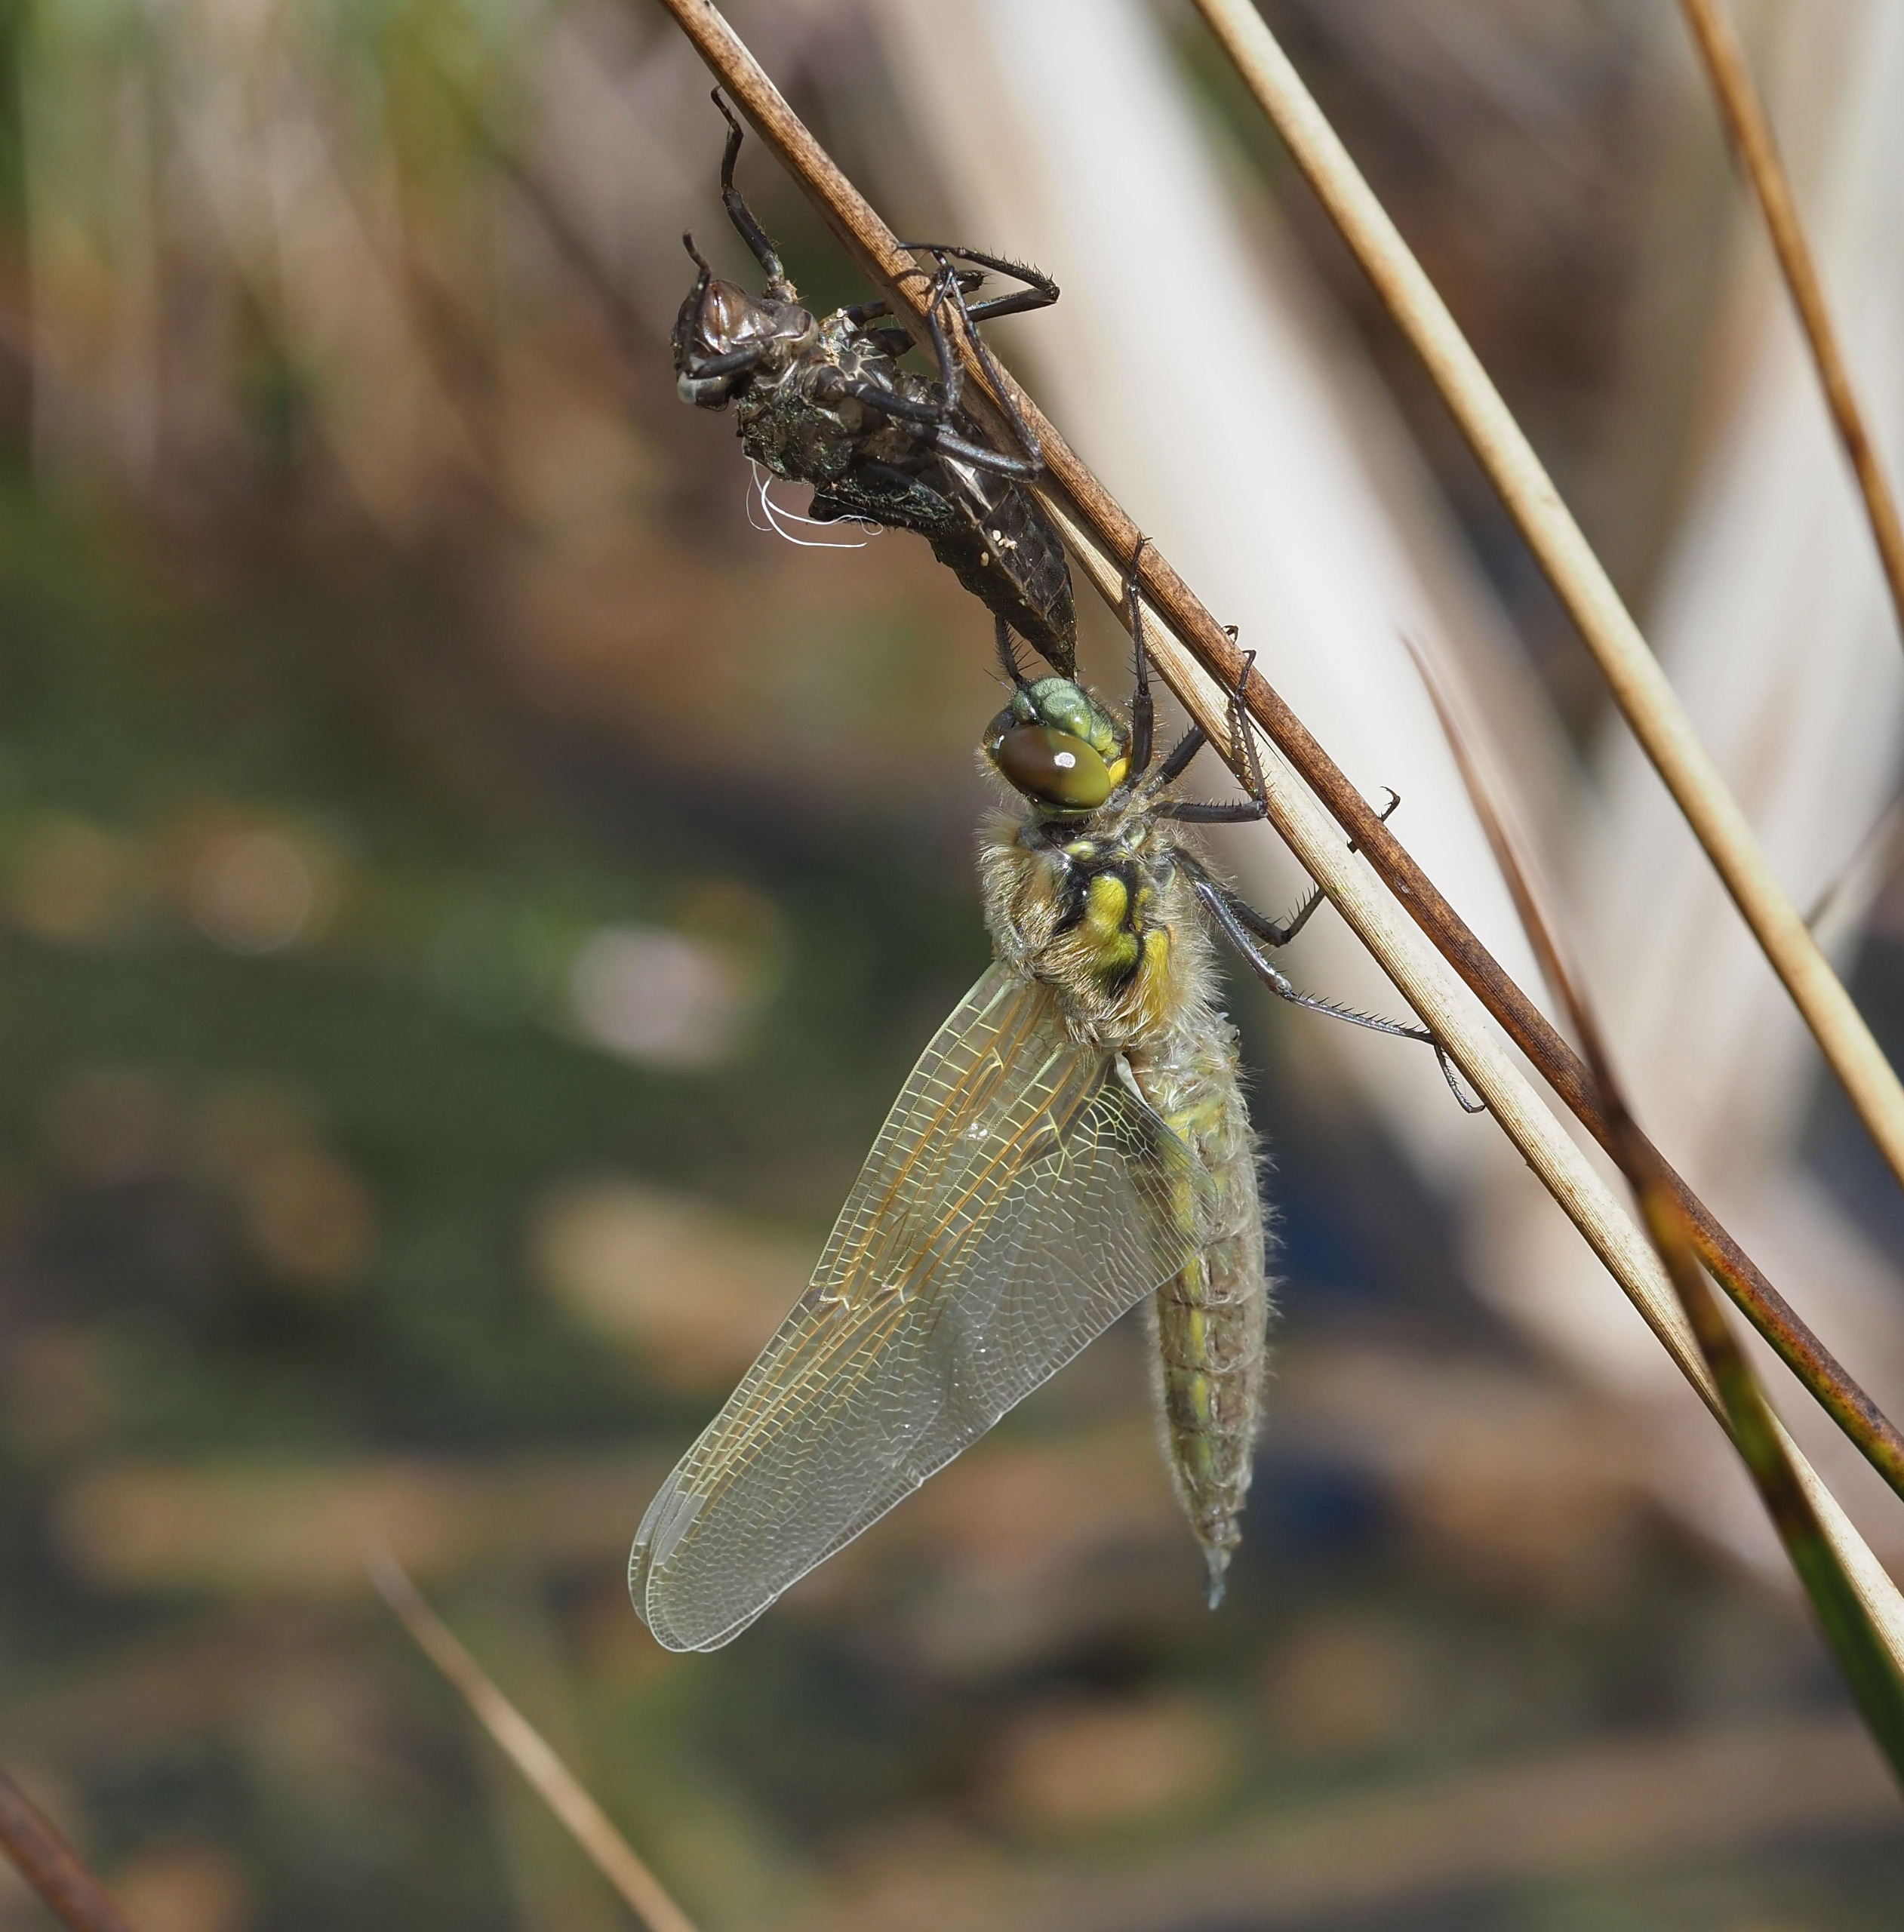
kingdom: Animalia
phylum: Arthropoda
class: Insecta
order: Odonata
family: Libellulidae
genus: Libellula
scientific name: Libellula quadrimaculata
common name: Fireplettet libel
